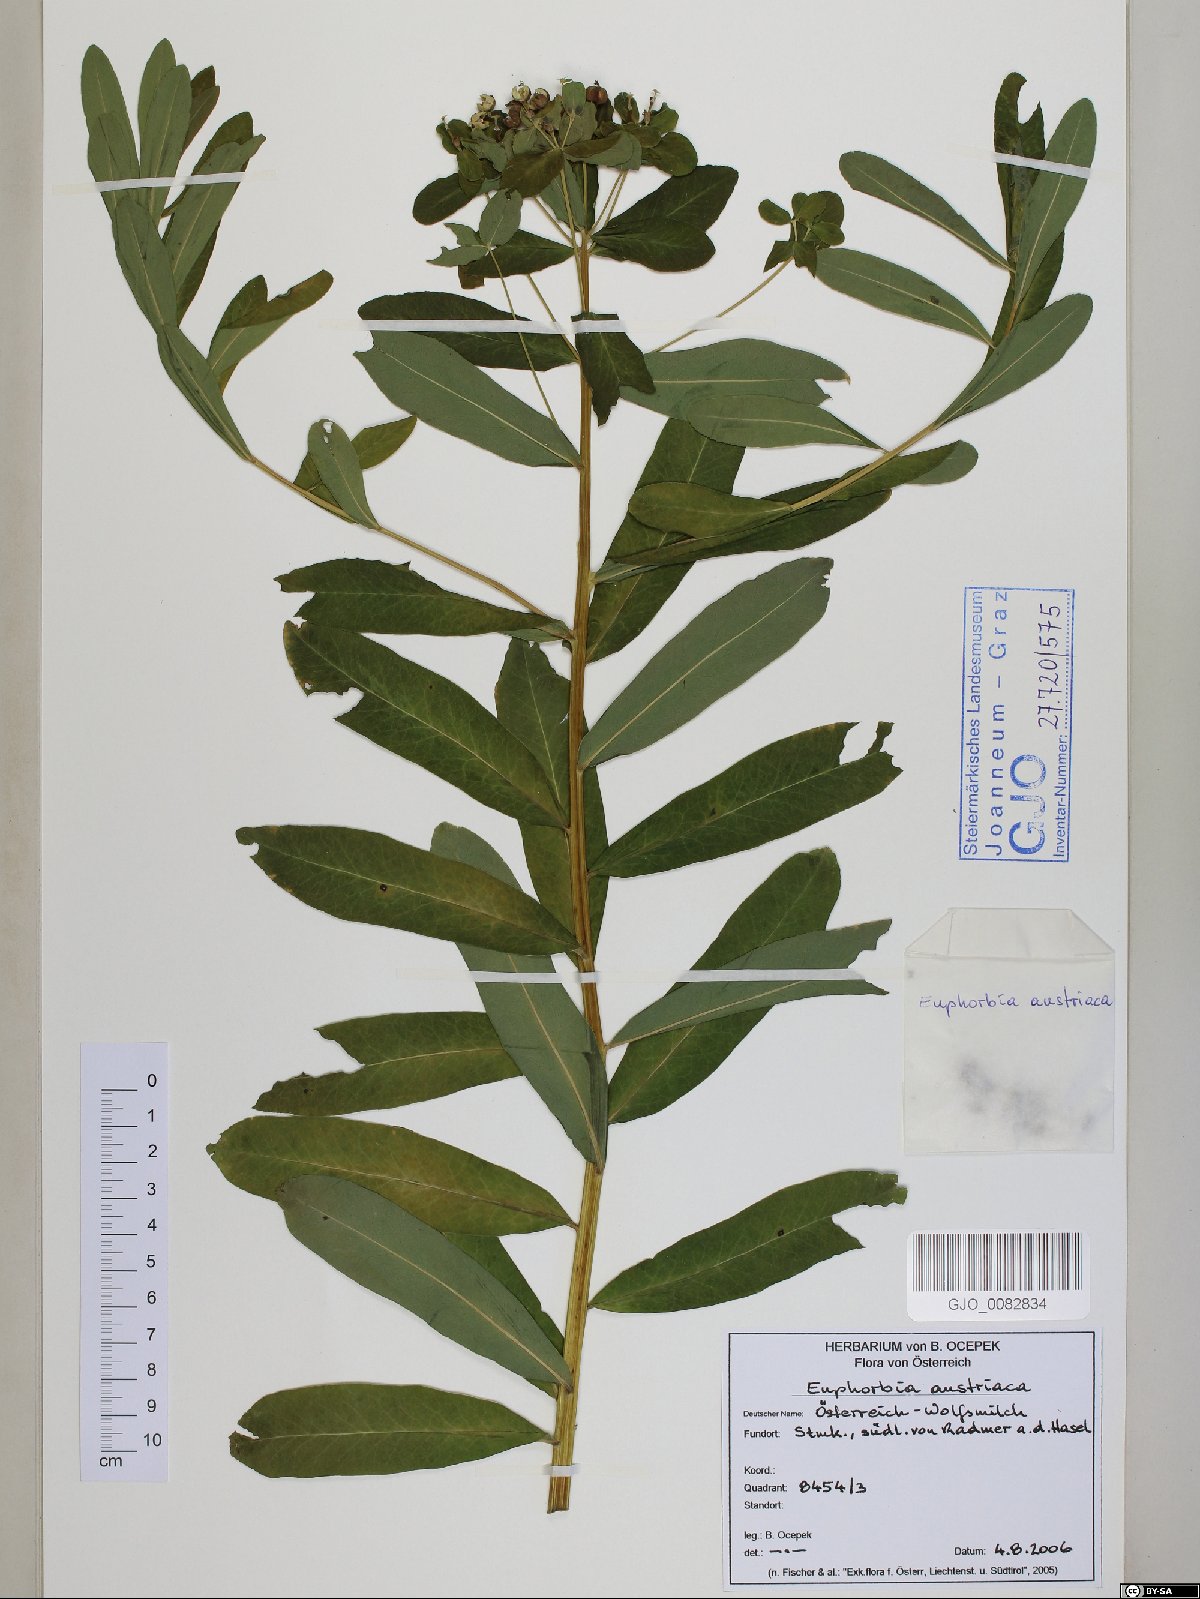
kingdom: Plantae
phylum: Tracheophyta
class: Magnoliopsida
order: Malpighiales
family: Euphorbiaceae
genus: Euphorbia
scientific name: Euphorbia austriaca
